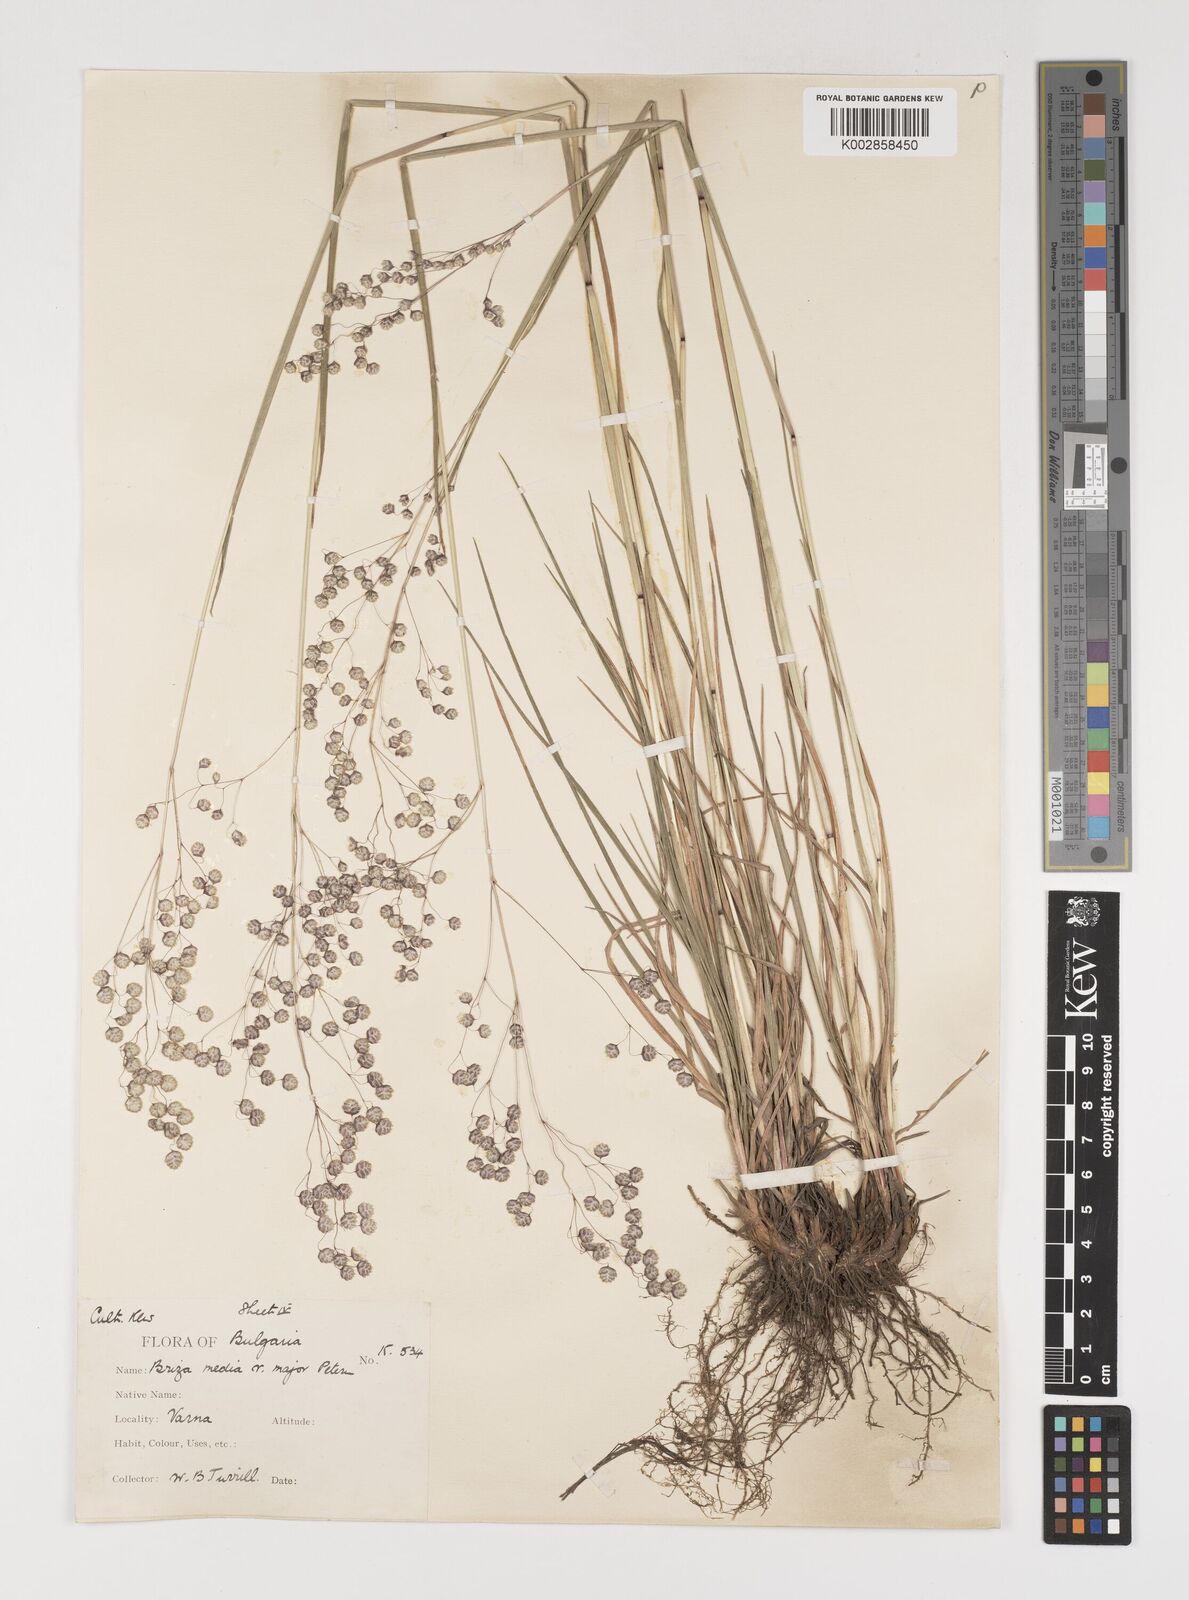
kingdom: Plantae
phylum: Tracheophyta
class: Liliopsida
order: Poales
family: Poaceae
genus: Briza
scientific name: Briza media
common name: Quaking grass
